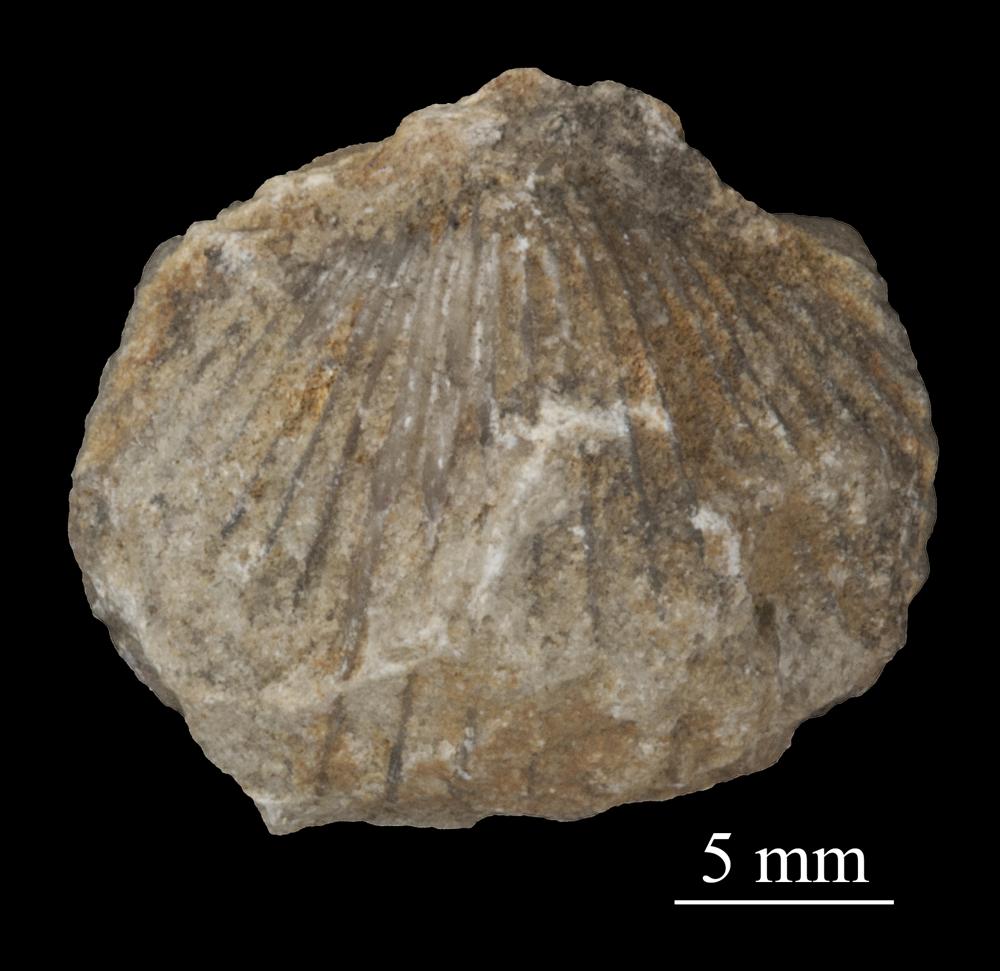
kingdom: Animalia
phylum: Brachiopoda
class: Rhynchonellata
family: Plectorthidae
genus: Platystrophia
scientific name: Platystrophia Terebratulites biforatus
